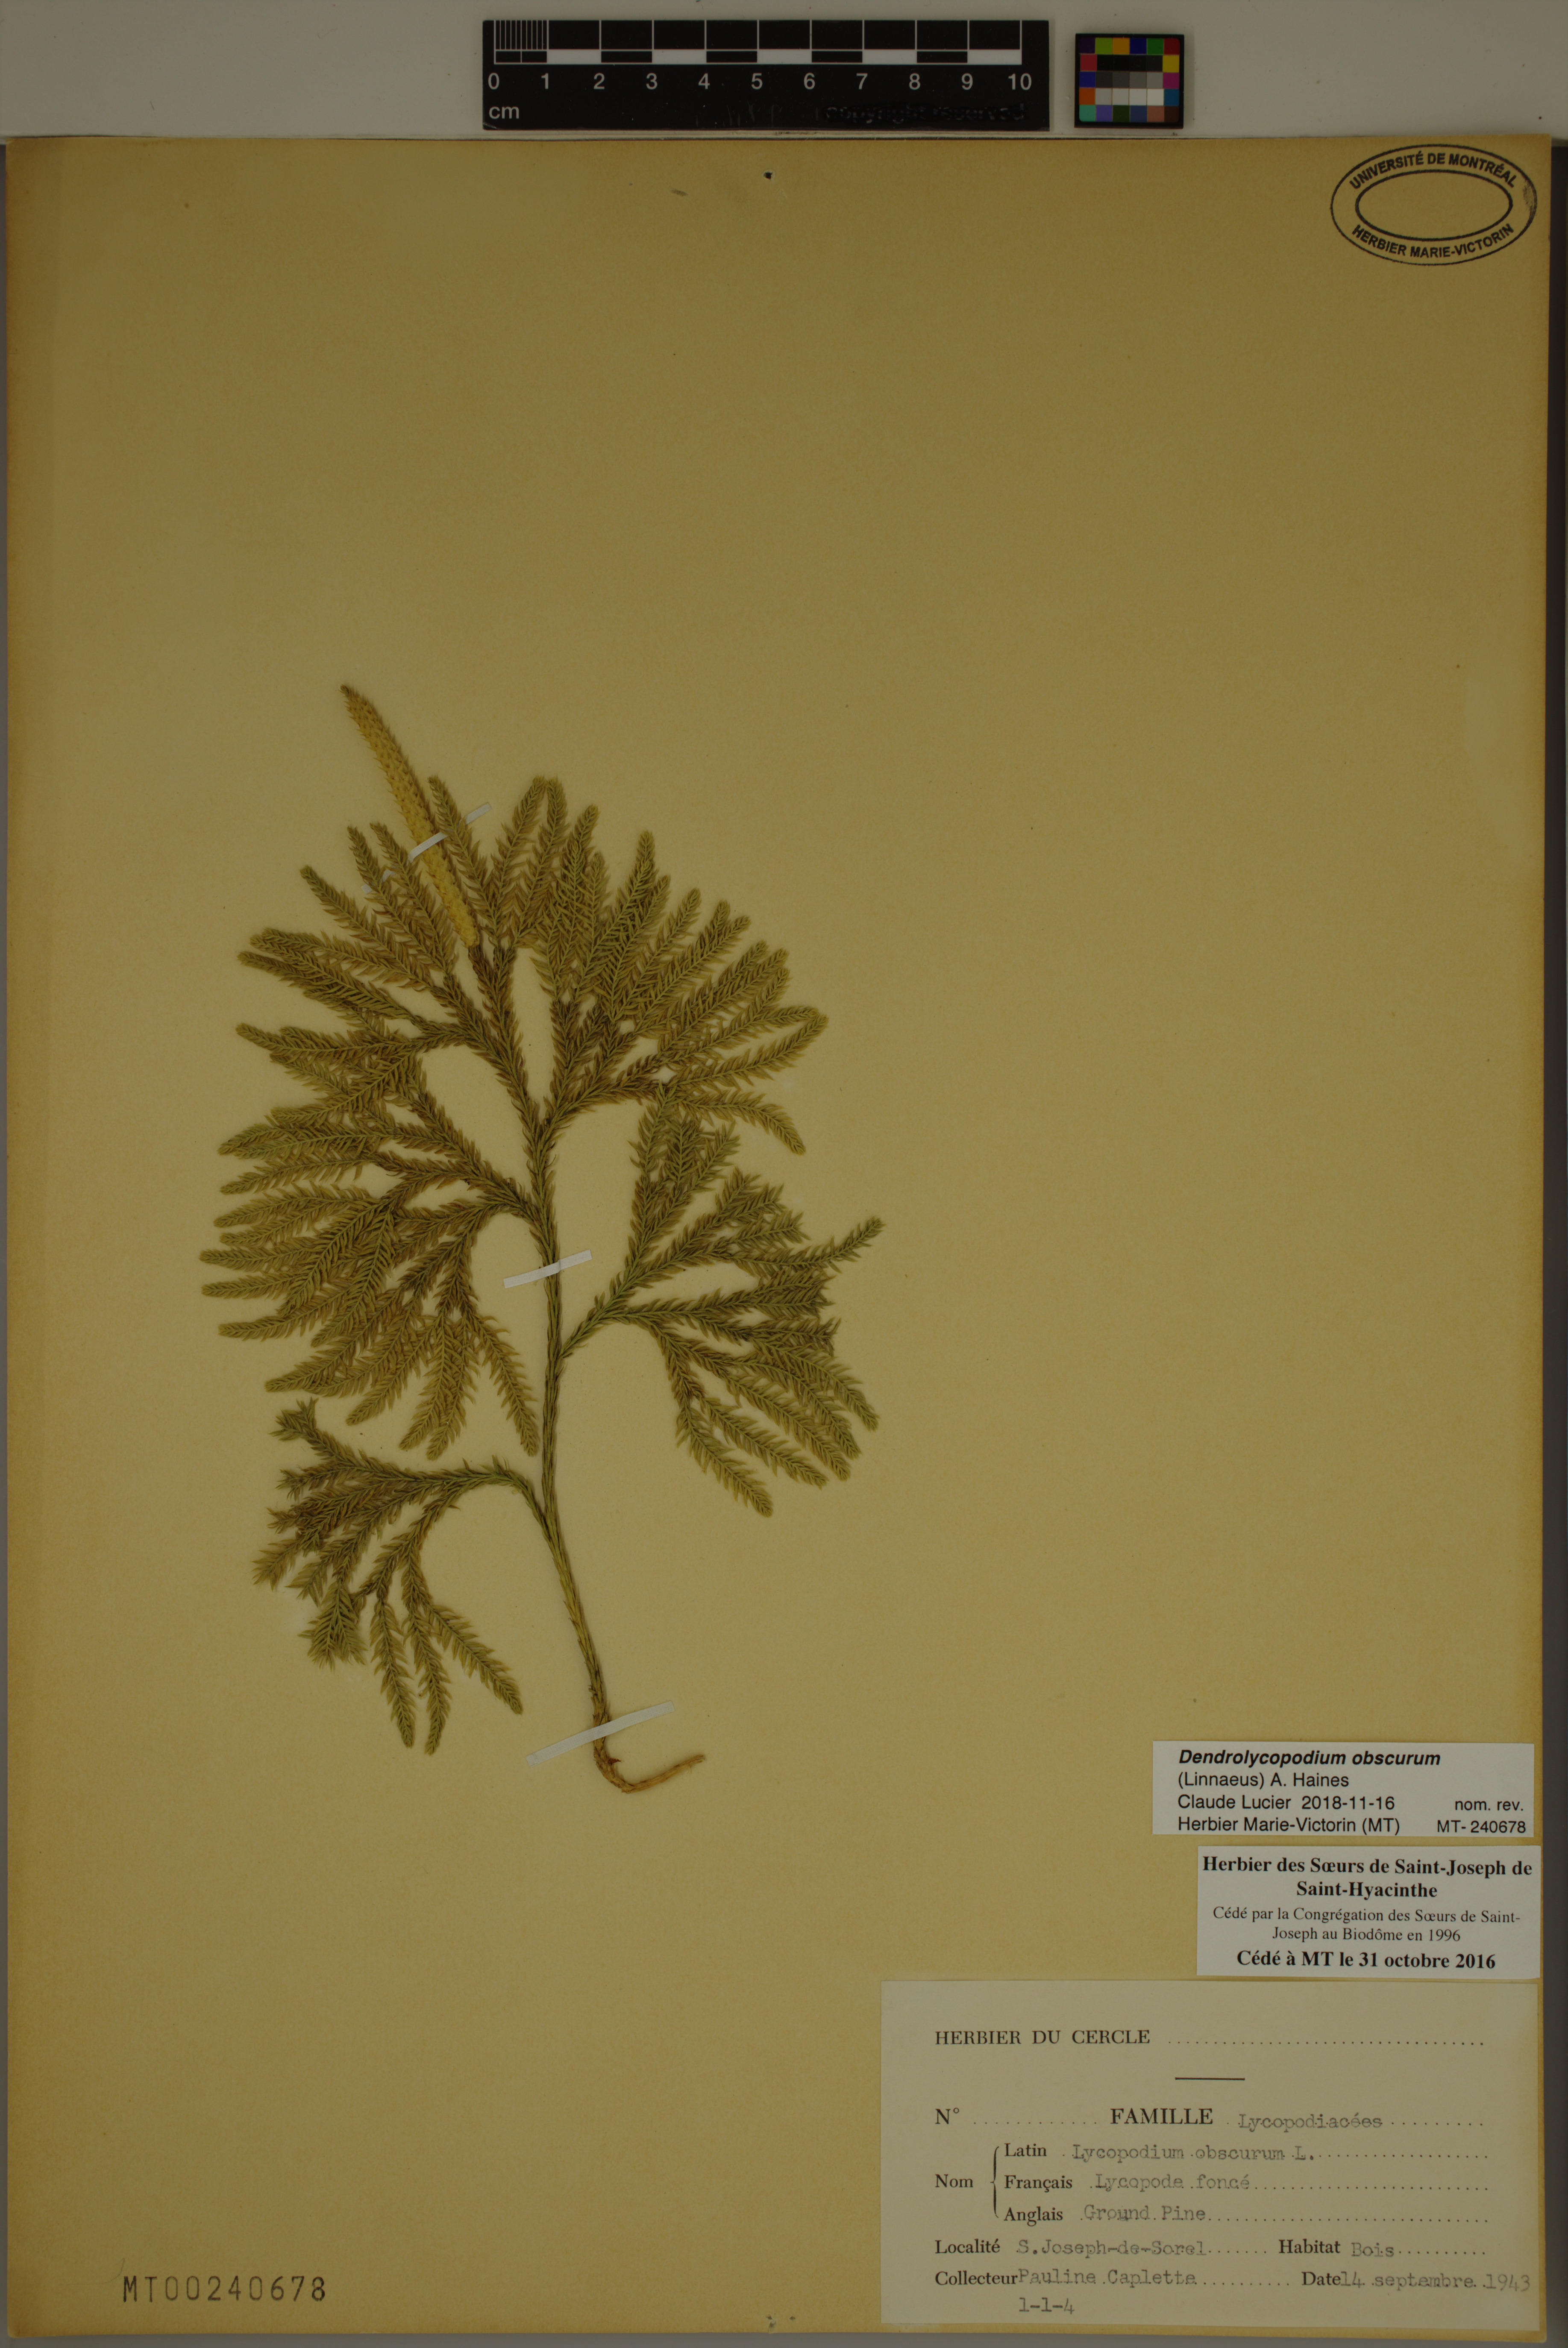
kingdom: Plantae
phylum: Tracheophyta
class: Lycopodiopsida
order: Lycopodiales
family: Lycopodiaceae
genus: Dendrolycopodium
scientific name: Dendrolycopodium obscurum
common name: Common ground-pine
